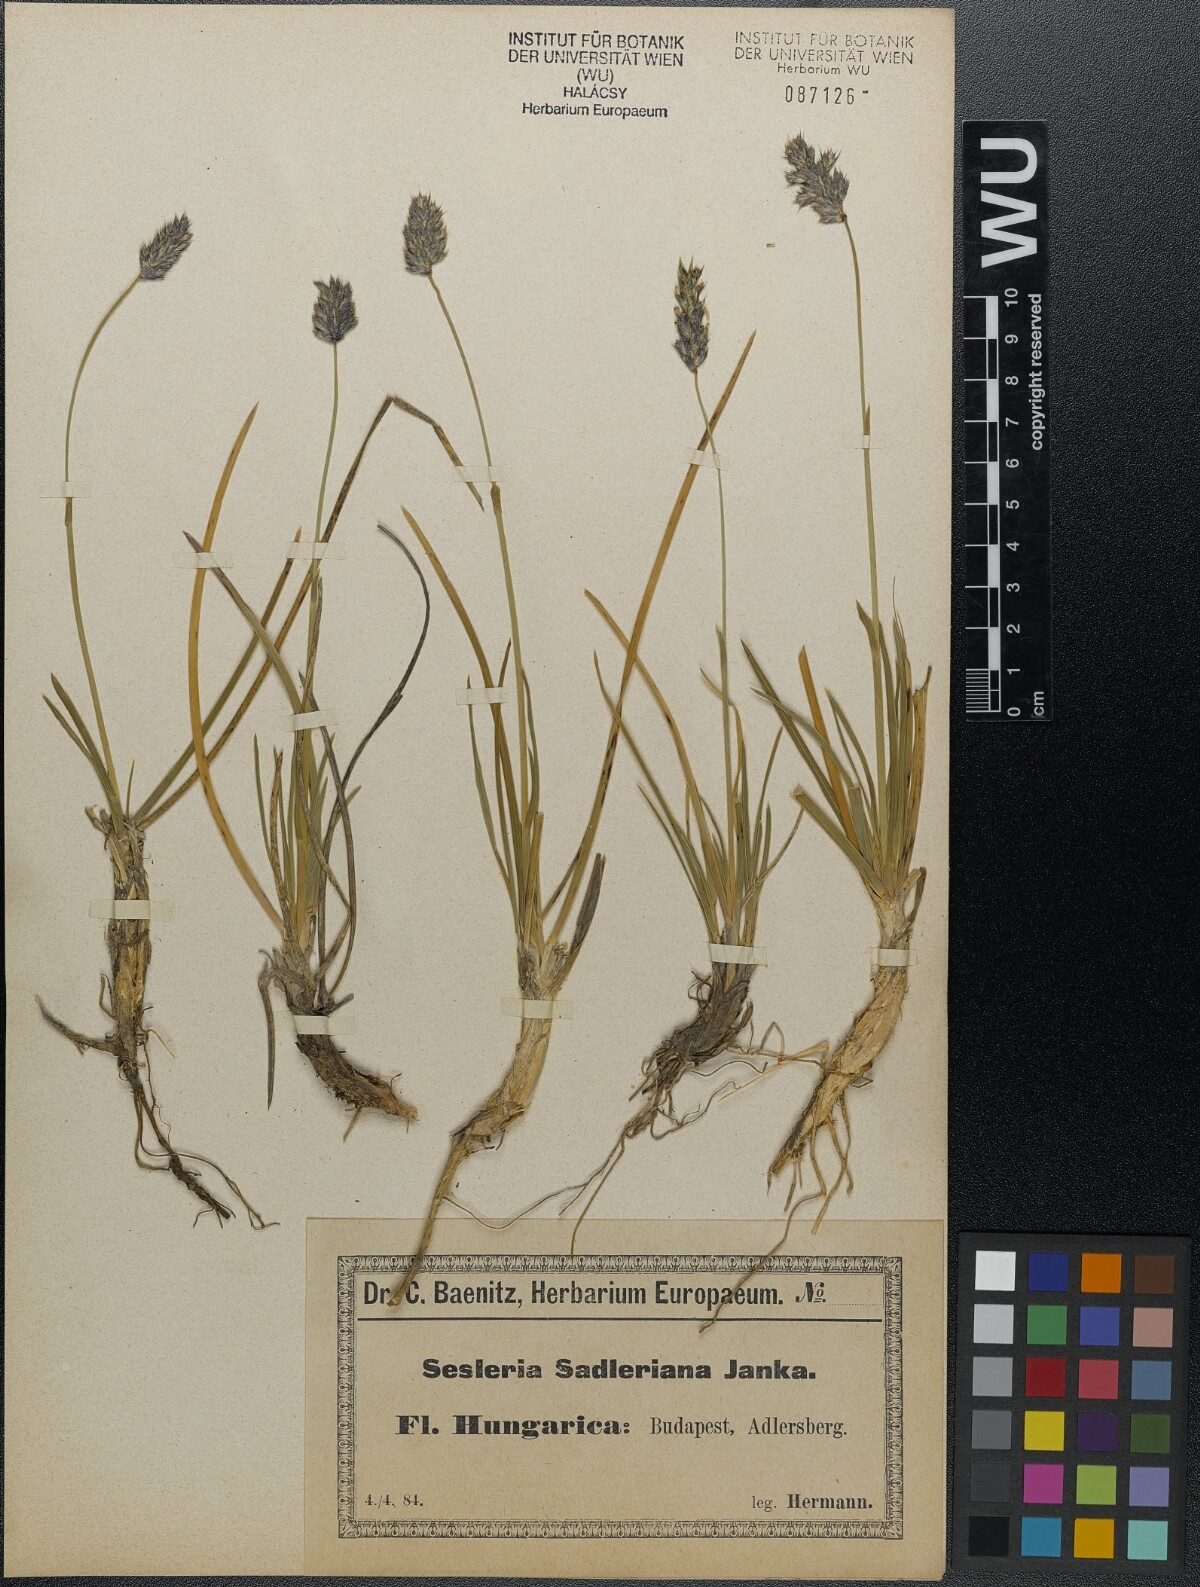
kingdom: Plantae
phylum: Tracheophyta
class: Liliopsida
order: Poales
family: Poaceae
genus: Sesleria
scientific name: Sesleria sadleriana
